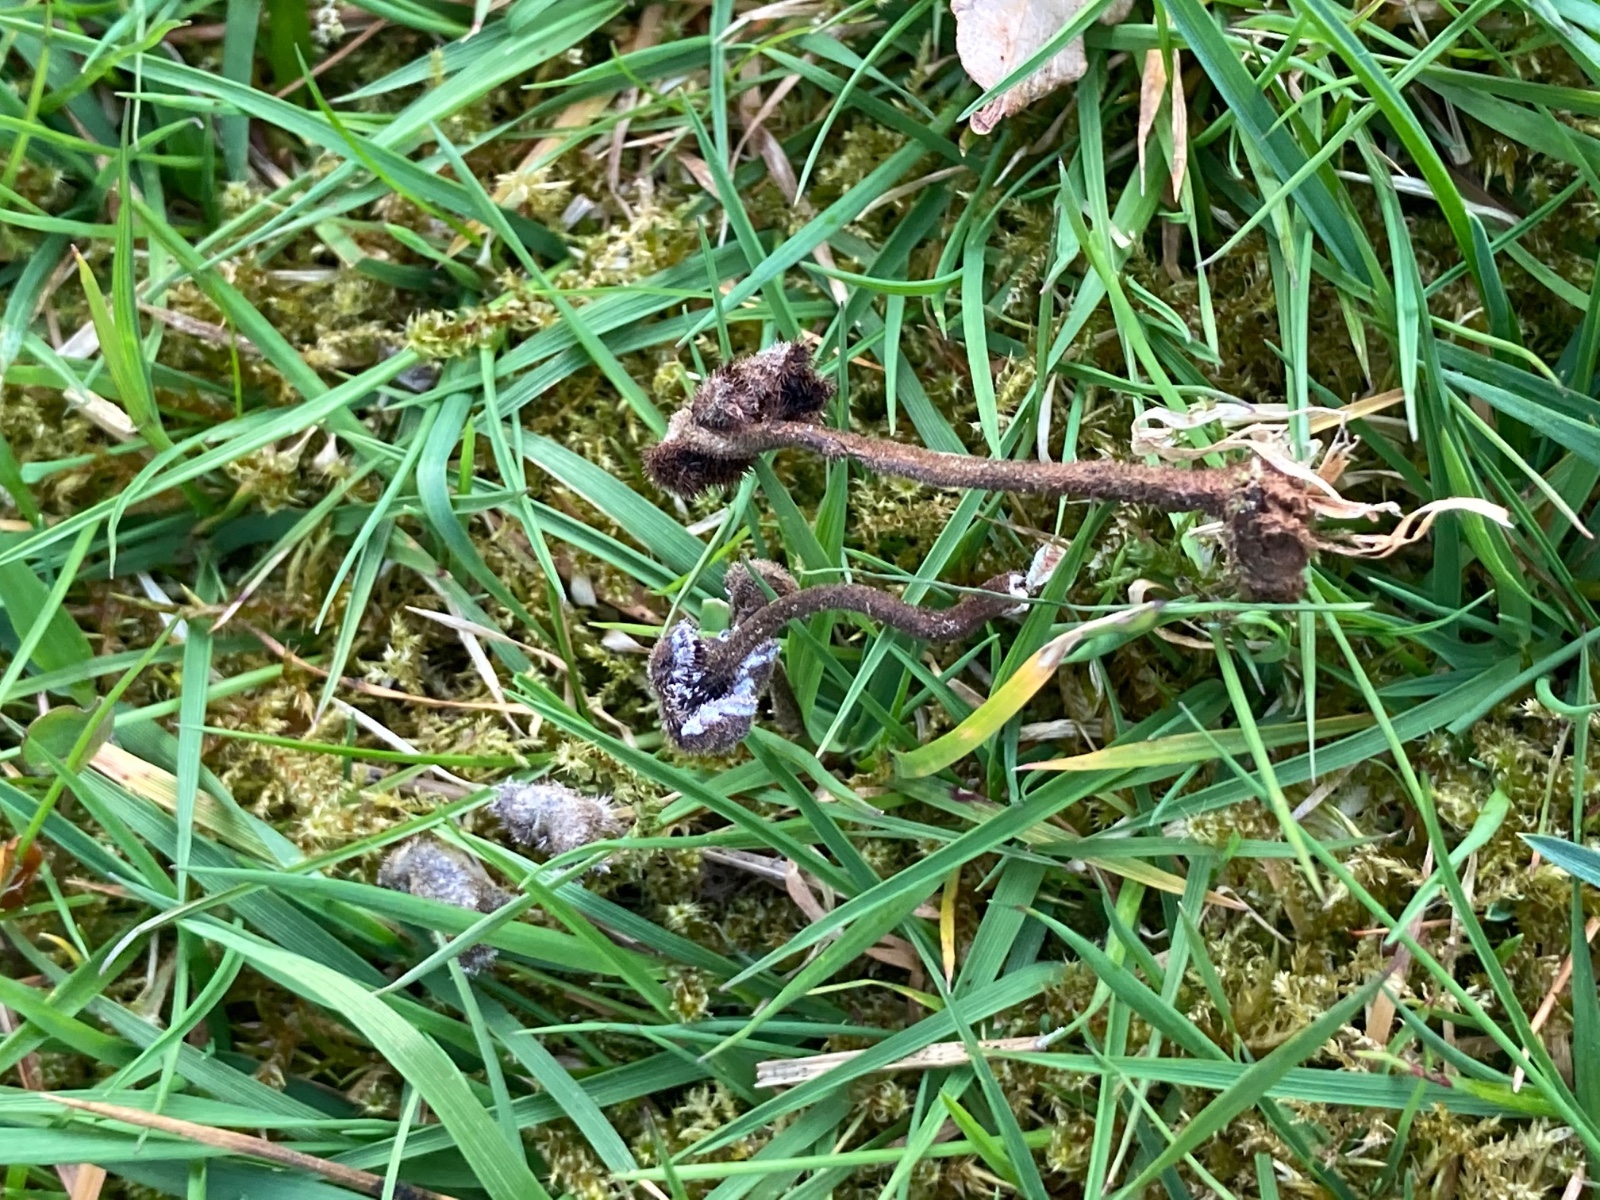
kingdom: Fungi
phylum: Basidiomycota
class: Agaricomycetes
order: Russulales
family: Auriscalpiaceae
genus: Auriscalpium
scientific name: Auriscalpium vulgare
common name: koglepigsvamp
